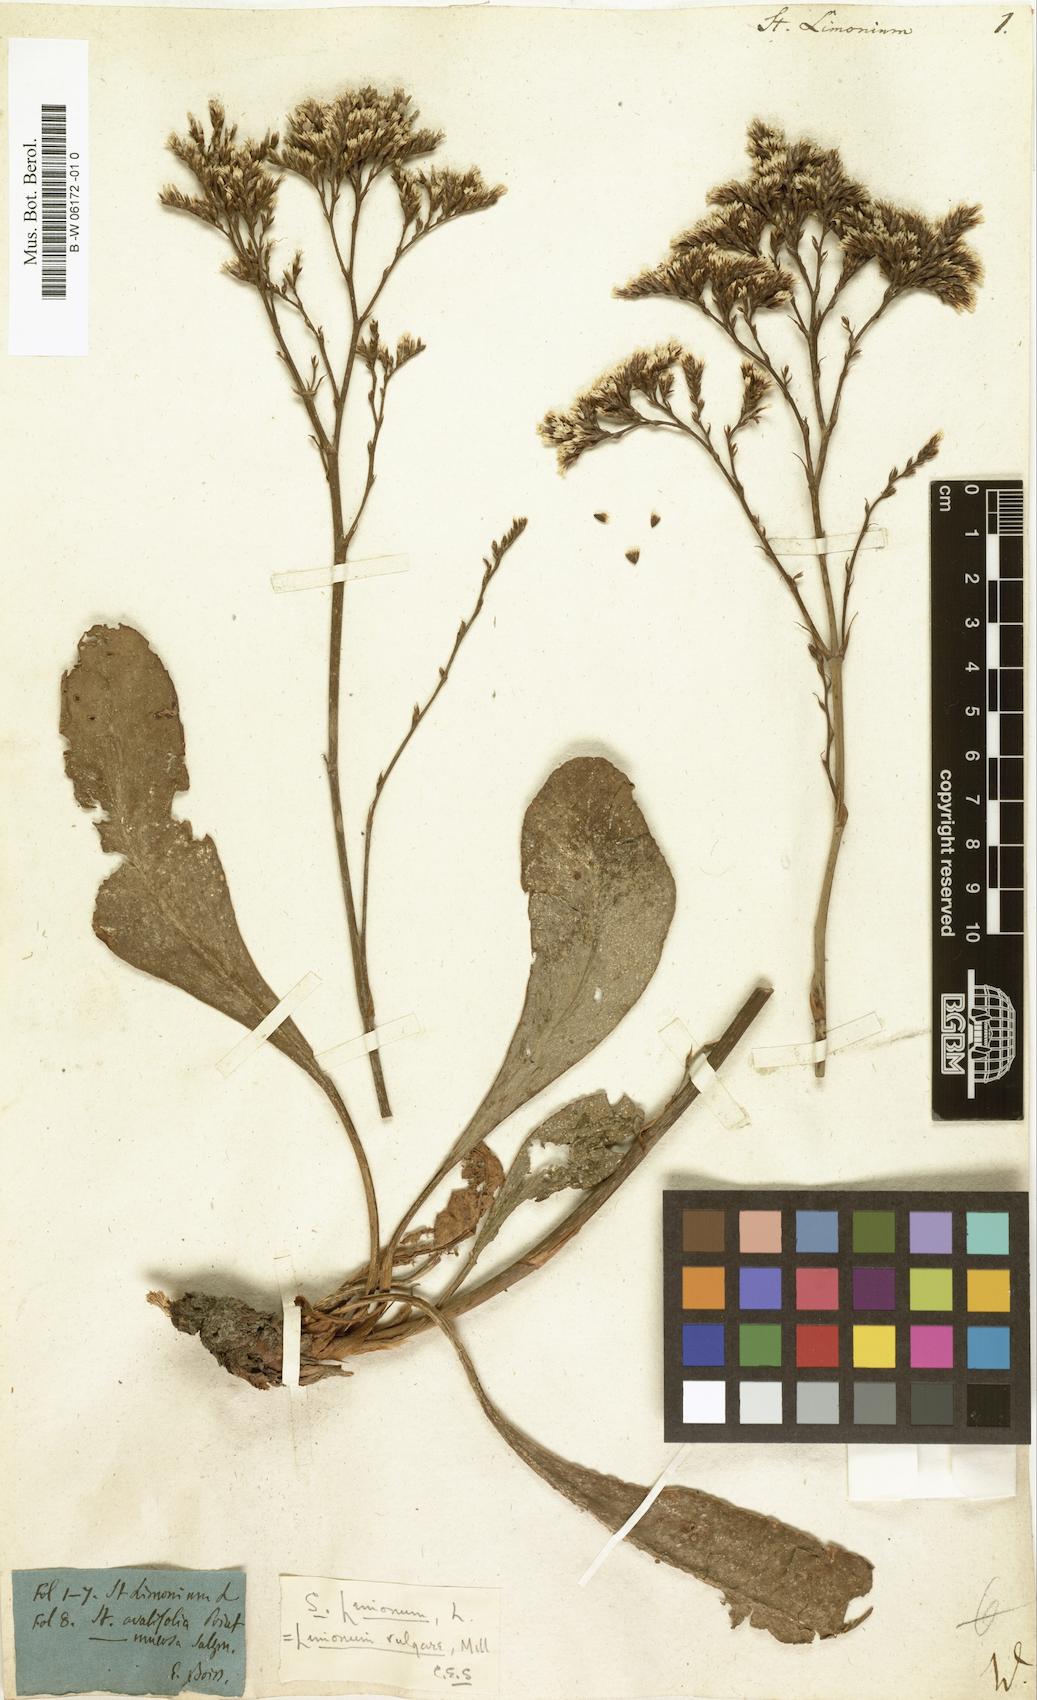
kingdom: Plantae
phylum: Tracheophyta
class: Magnoliopsida
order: Caryophyllales
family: Plumbaginaceae
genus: Limonium
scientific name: Limonium
